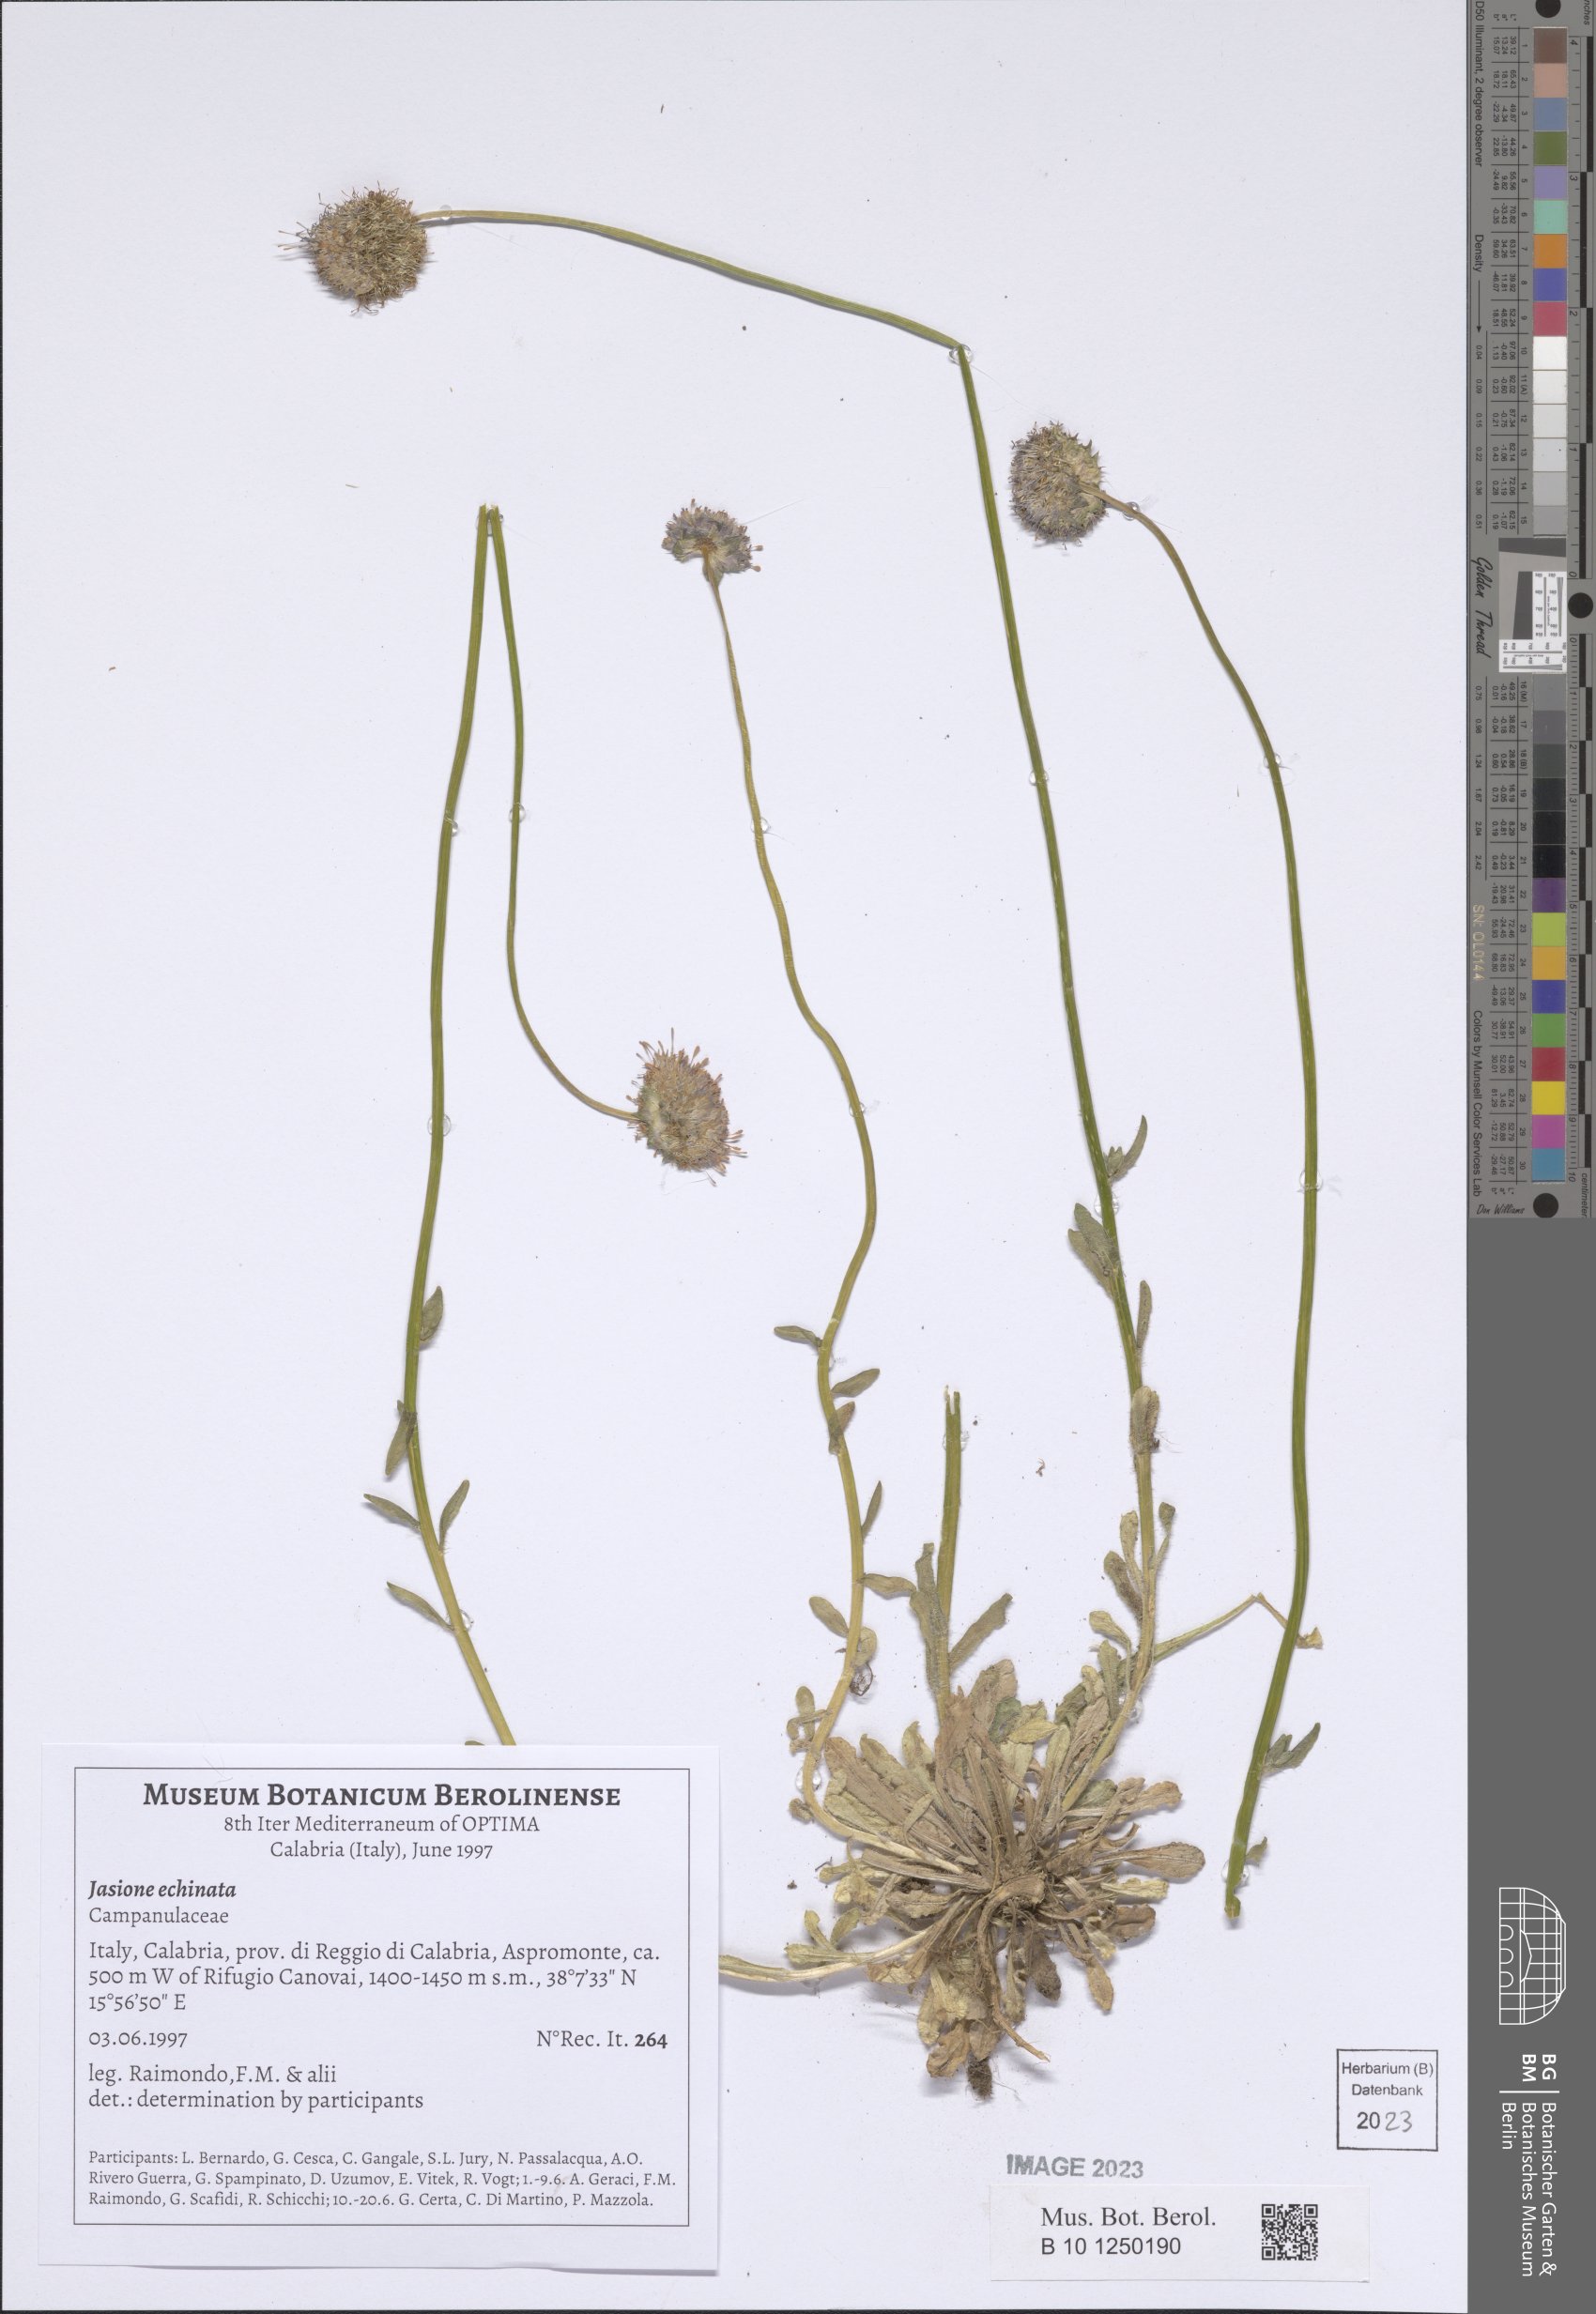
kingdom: Plantae
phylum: Tracheophyta
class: Magnoliopsida
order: Asterales
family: Campanulaceae
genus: Jasione
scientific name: Jasione montana
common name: Sheep's-bit
